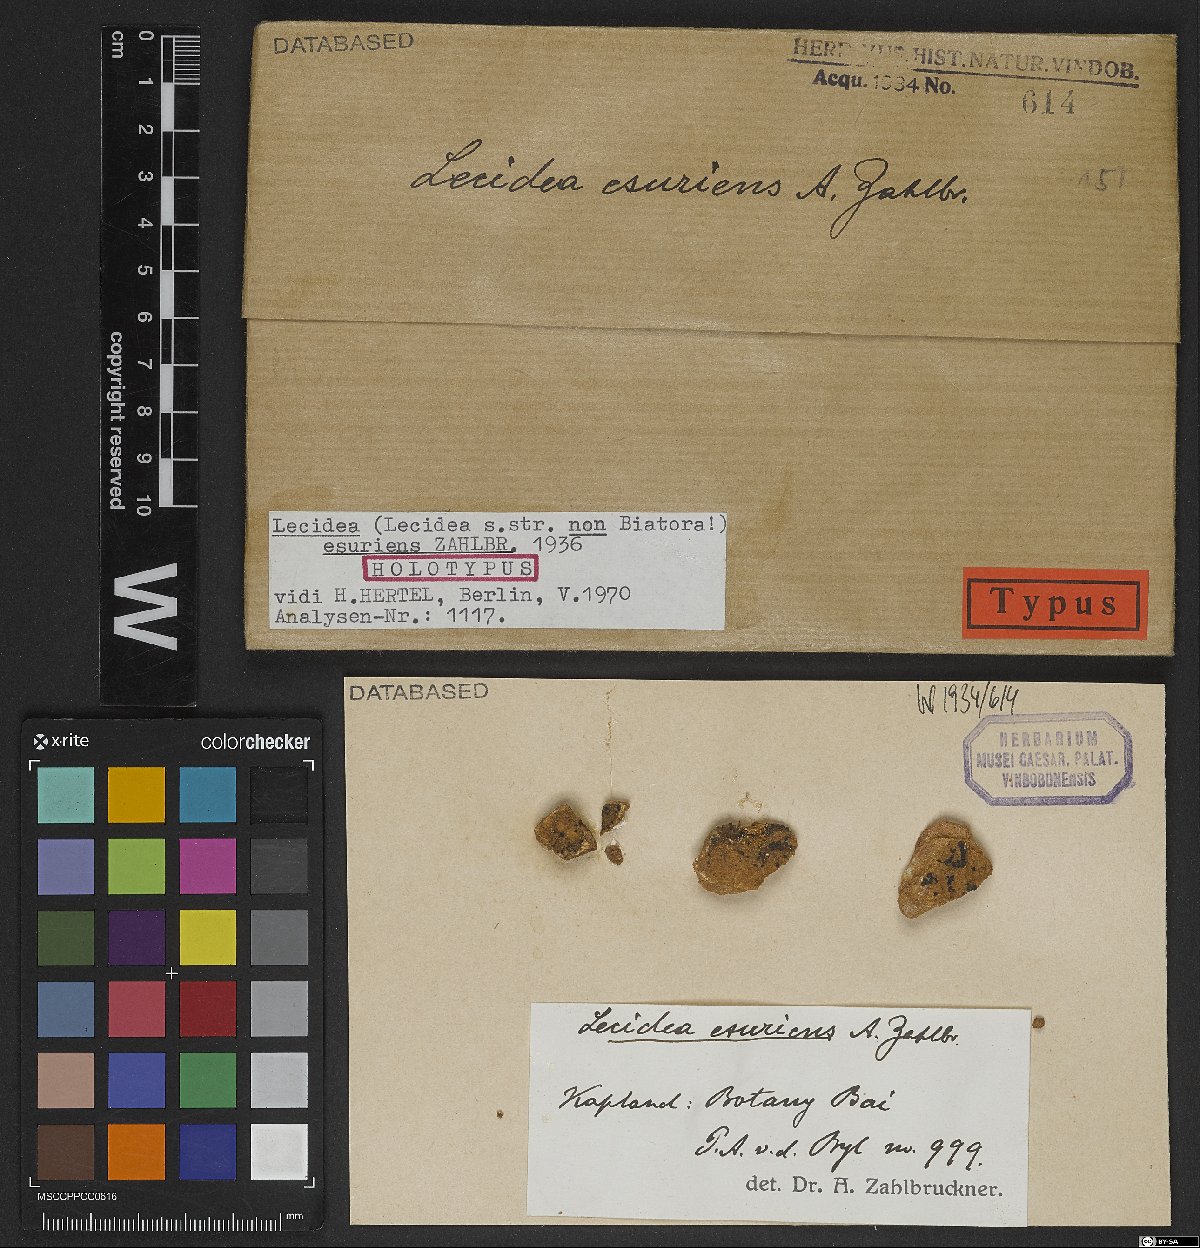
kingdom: Fungi
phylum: Ascomycota
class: Lecanoromycetes
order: Lecideales
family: Lecideaceae
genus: Lecidea
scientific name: Lecidea
